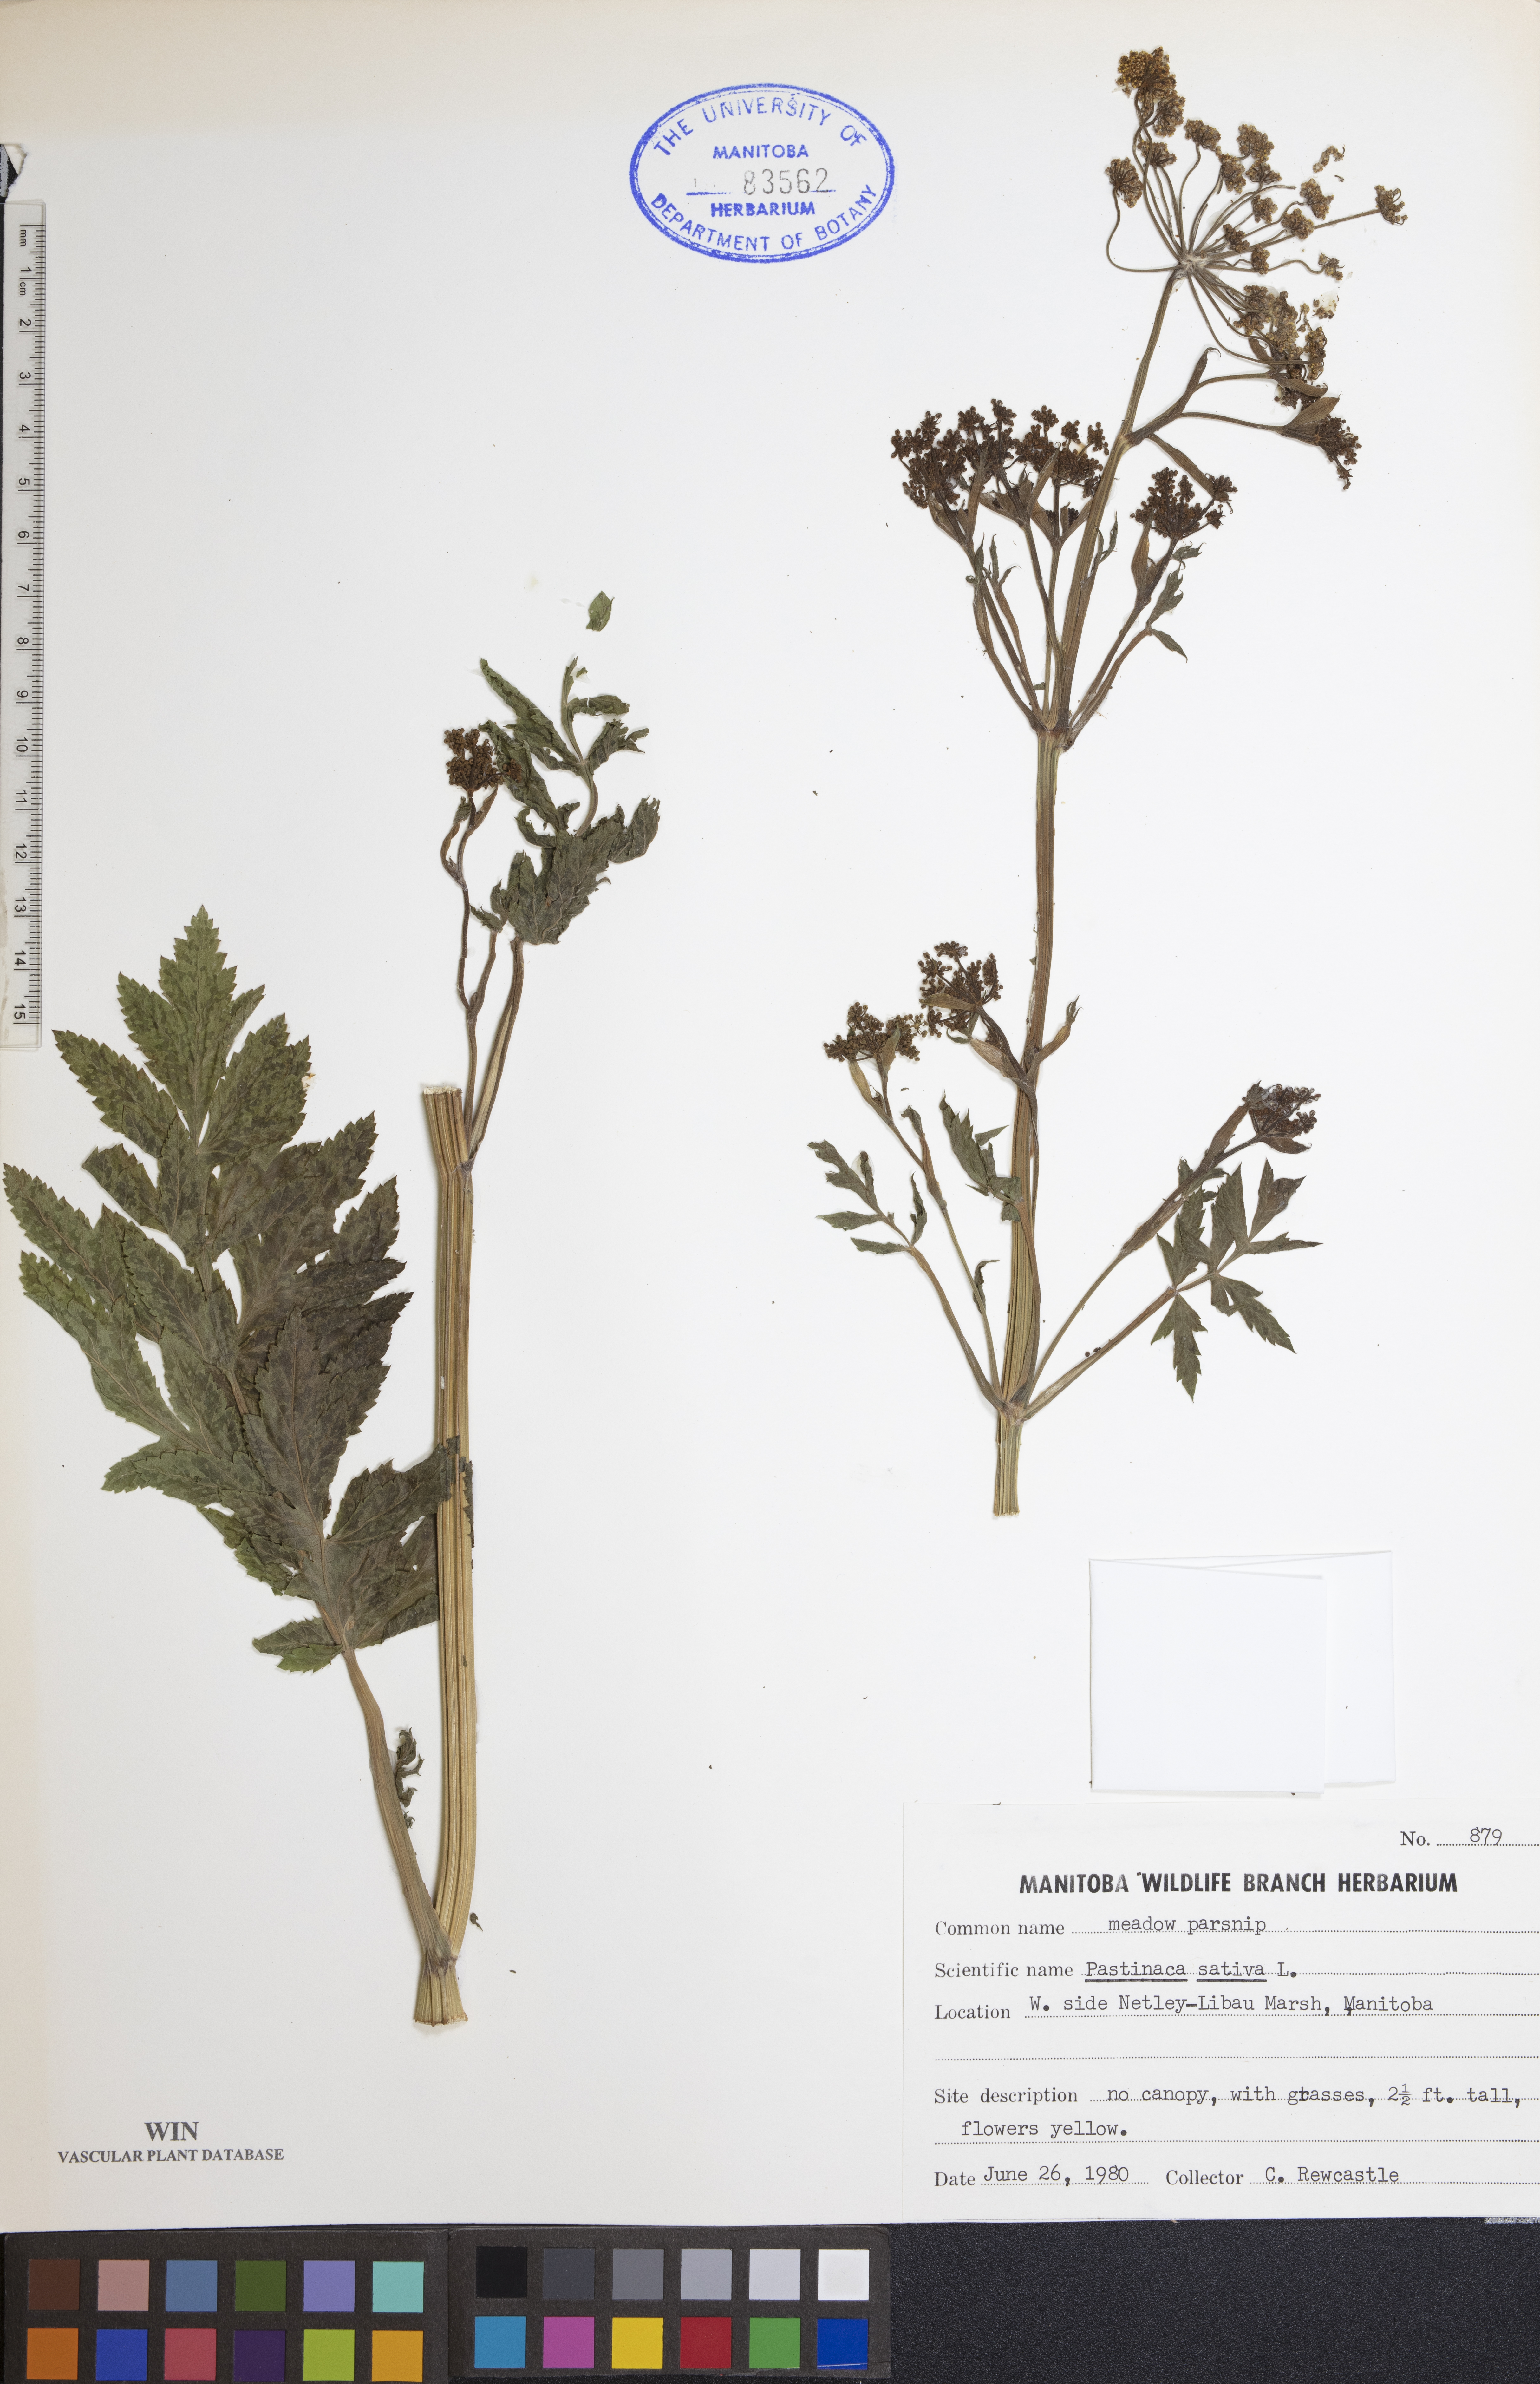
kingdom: Plantae
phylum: Tracheophyta
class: Magnoliopsida
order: Apiales
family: Apiaceae
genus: Pastinaca
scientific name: Pastinaca sativa
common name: Wild parsnip
